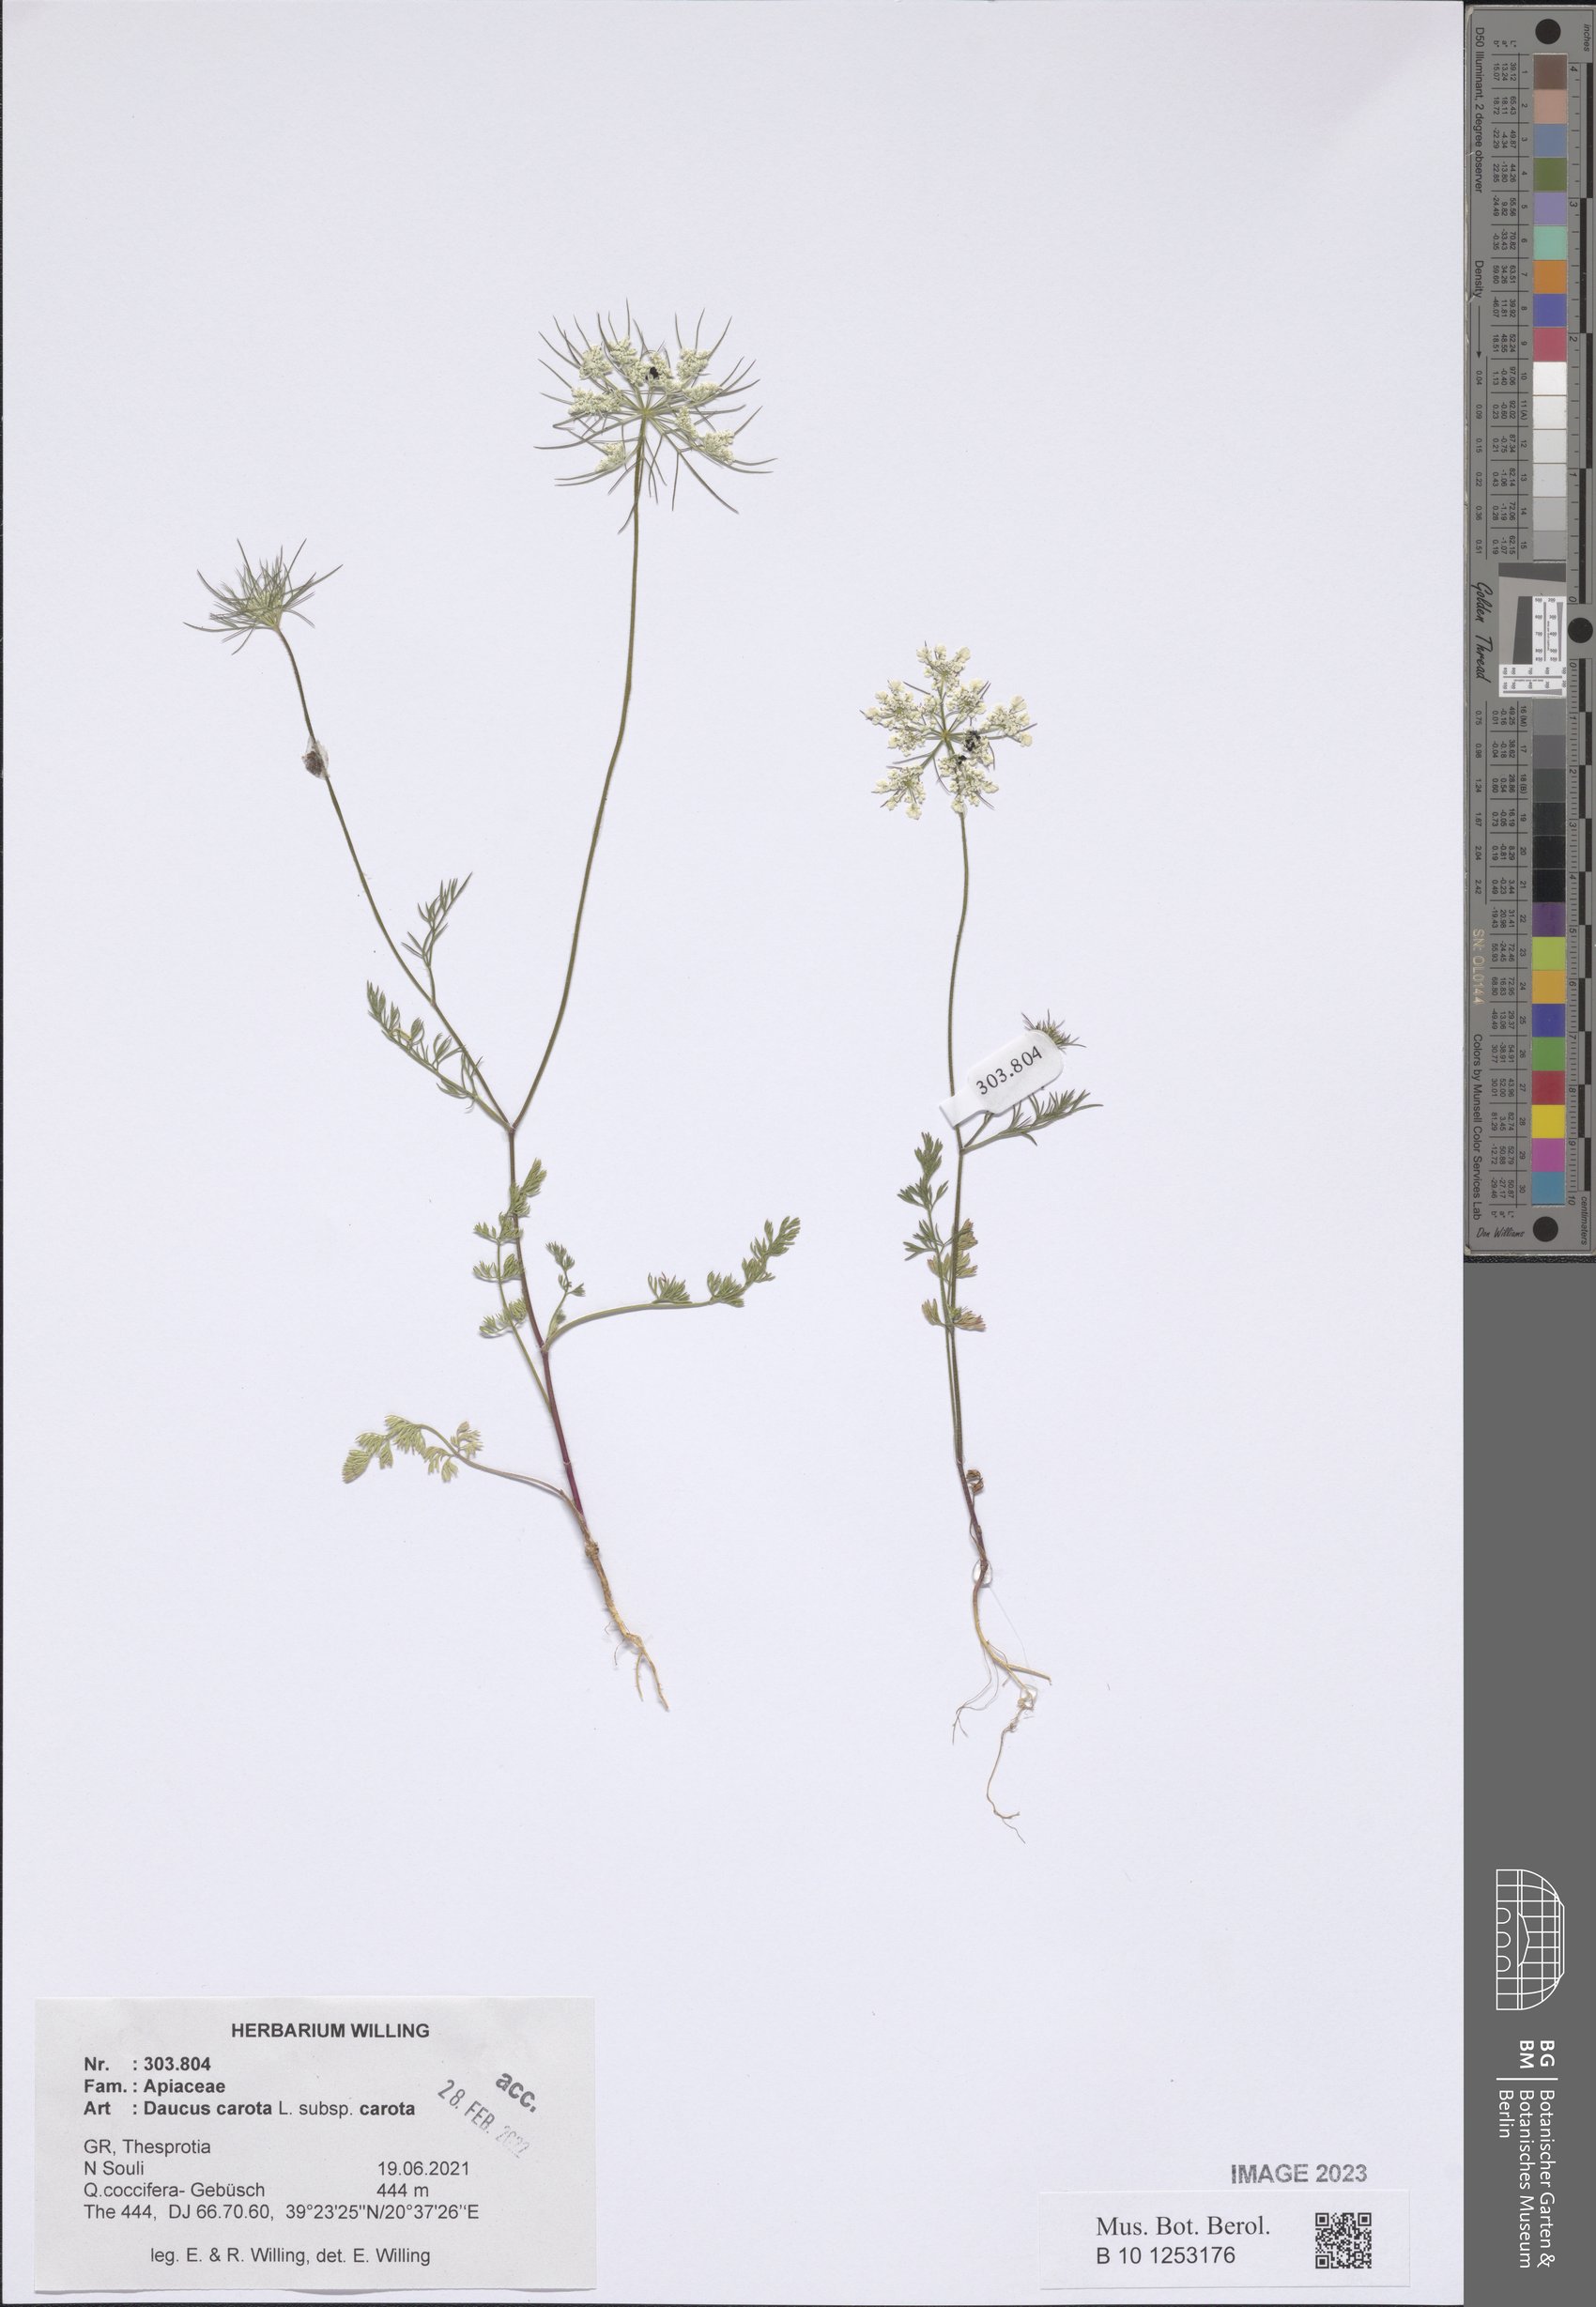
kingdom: Plantae
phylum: Tracheophyta
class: Magnoliopsida
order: Apiales
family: Apiaceae
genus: Daucus
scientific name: Daucus carota
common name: Wild carrot
